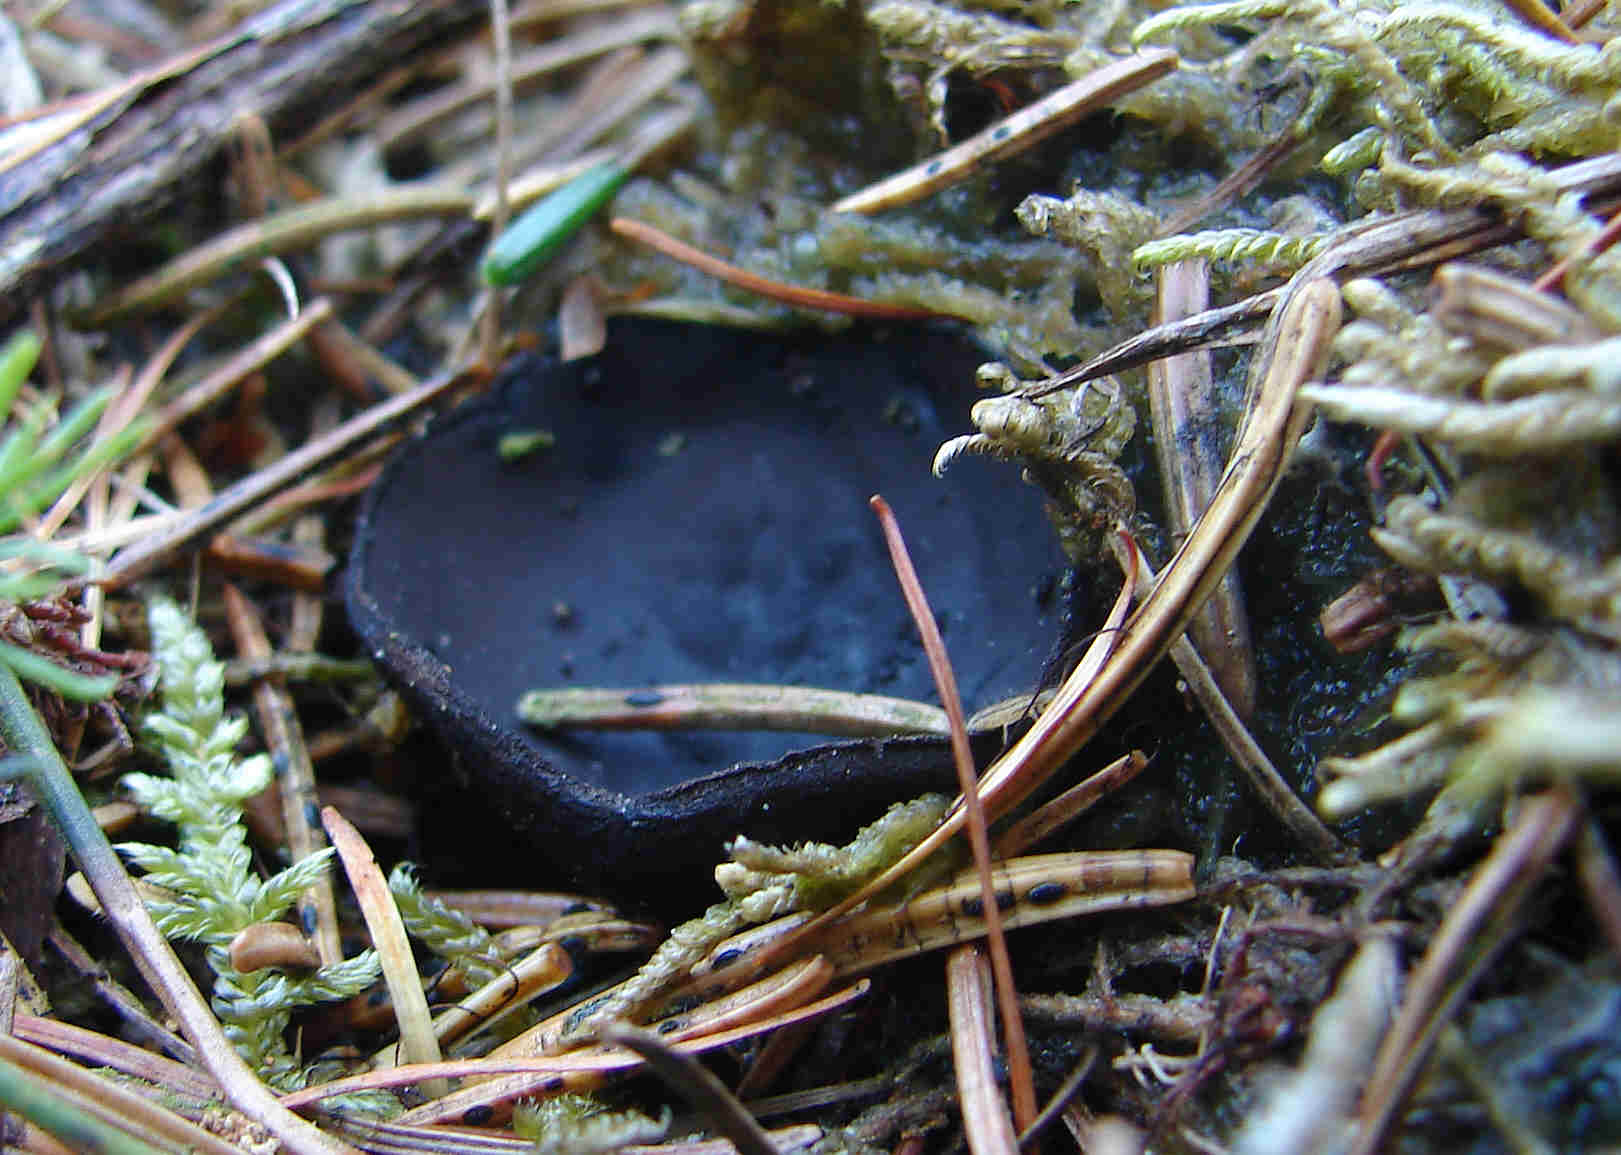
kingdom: Fungi
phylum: Ascomycota
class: Pezizomycetes
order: Pezizales
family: Sarcosomataceae
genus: Pseudoplectania
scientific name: Pseudoplectania nigrella
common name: almindelig sortbæger
